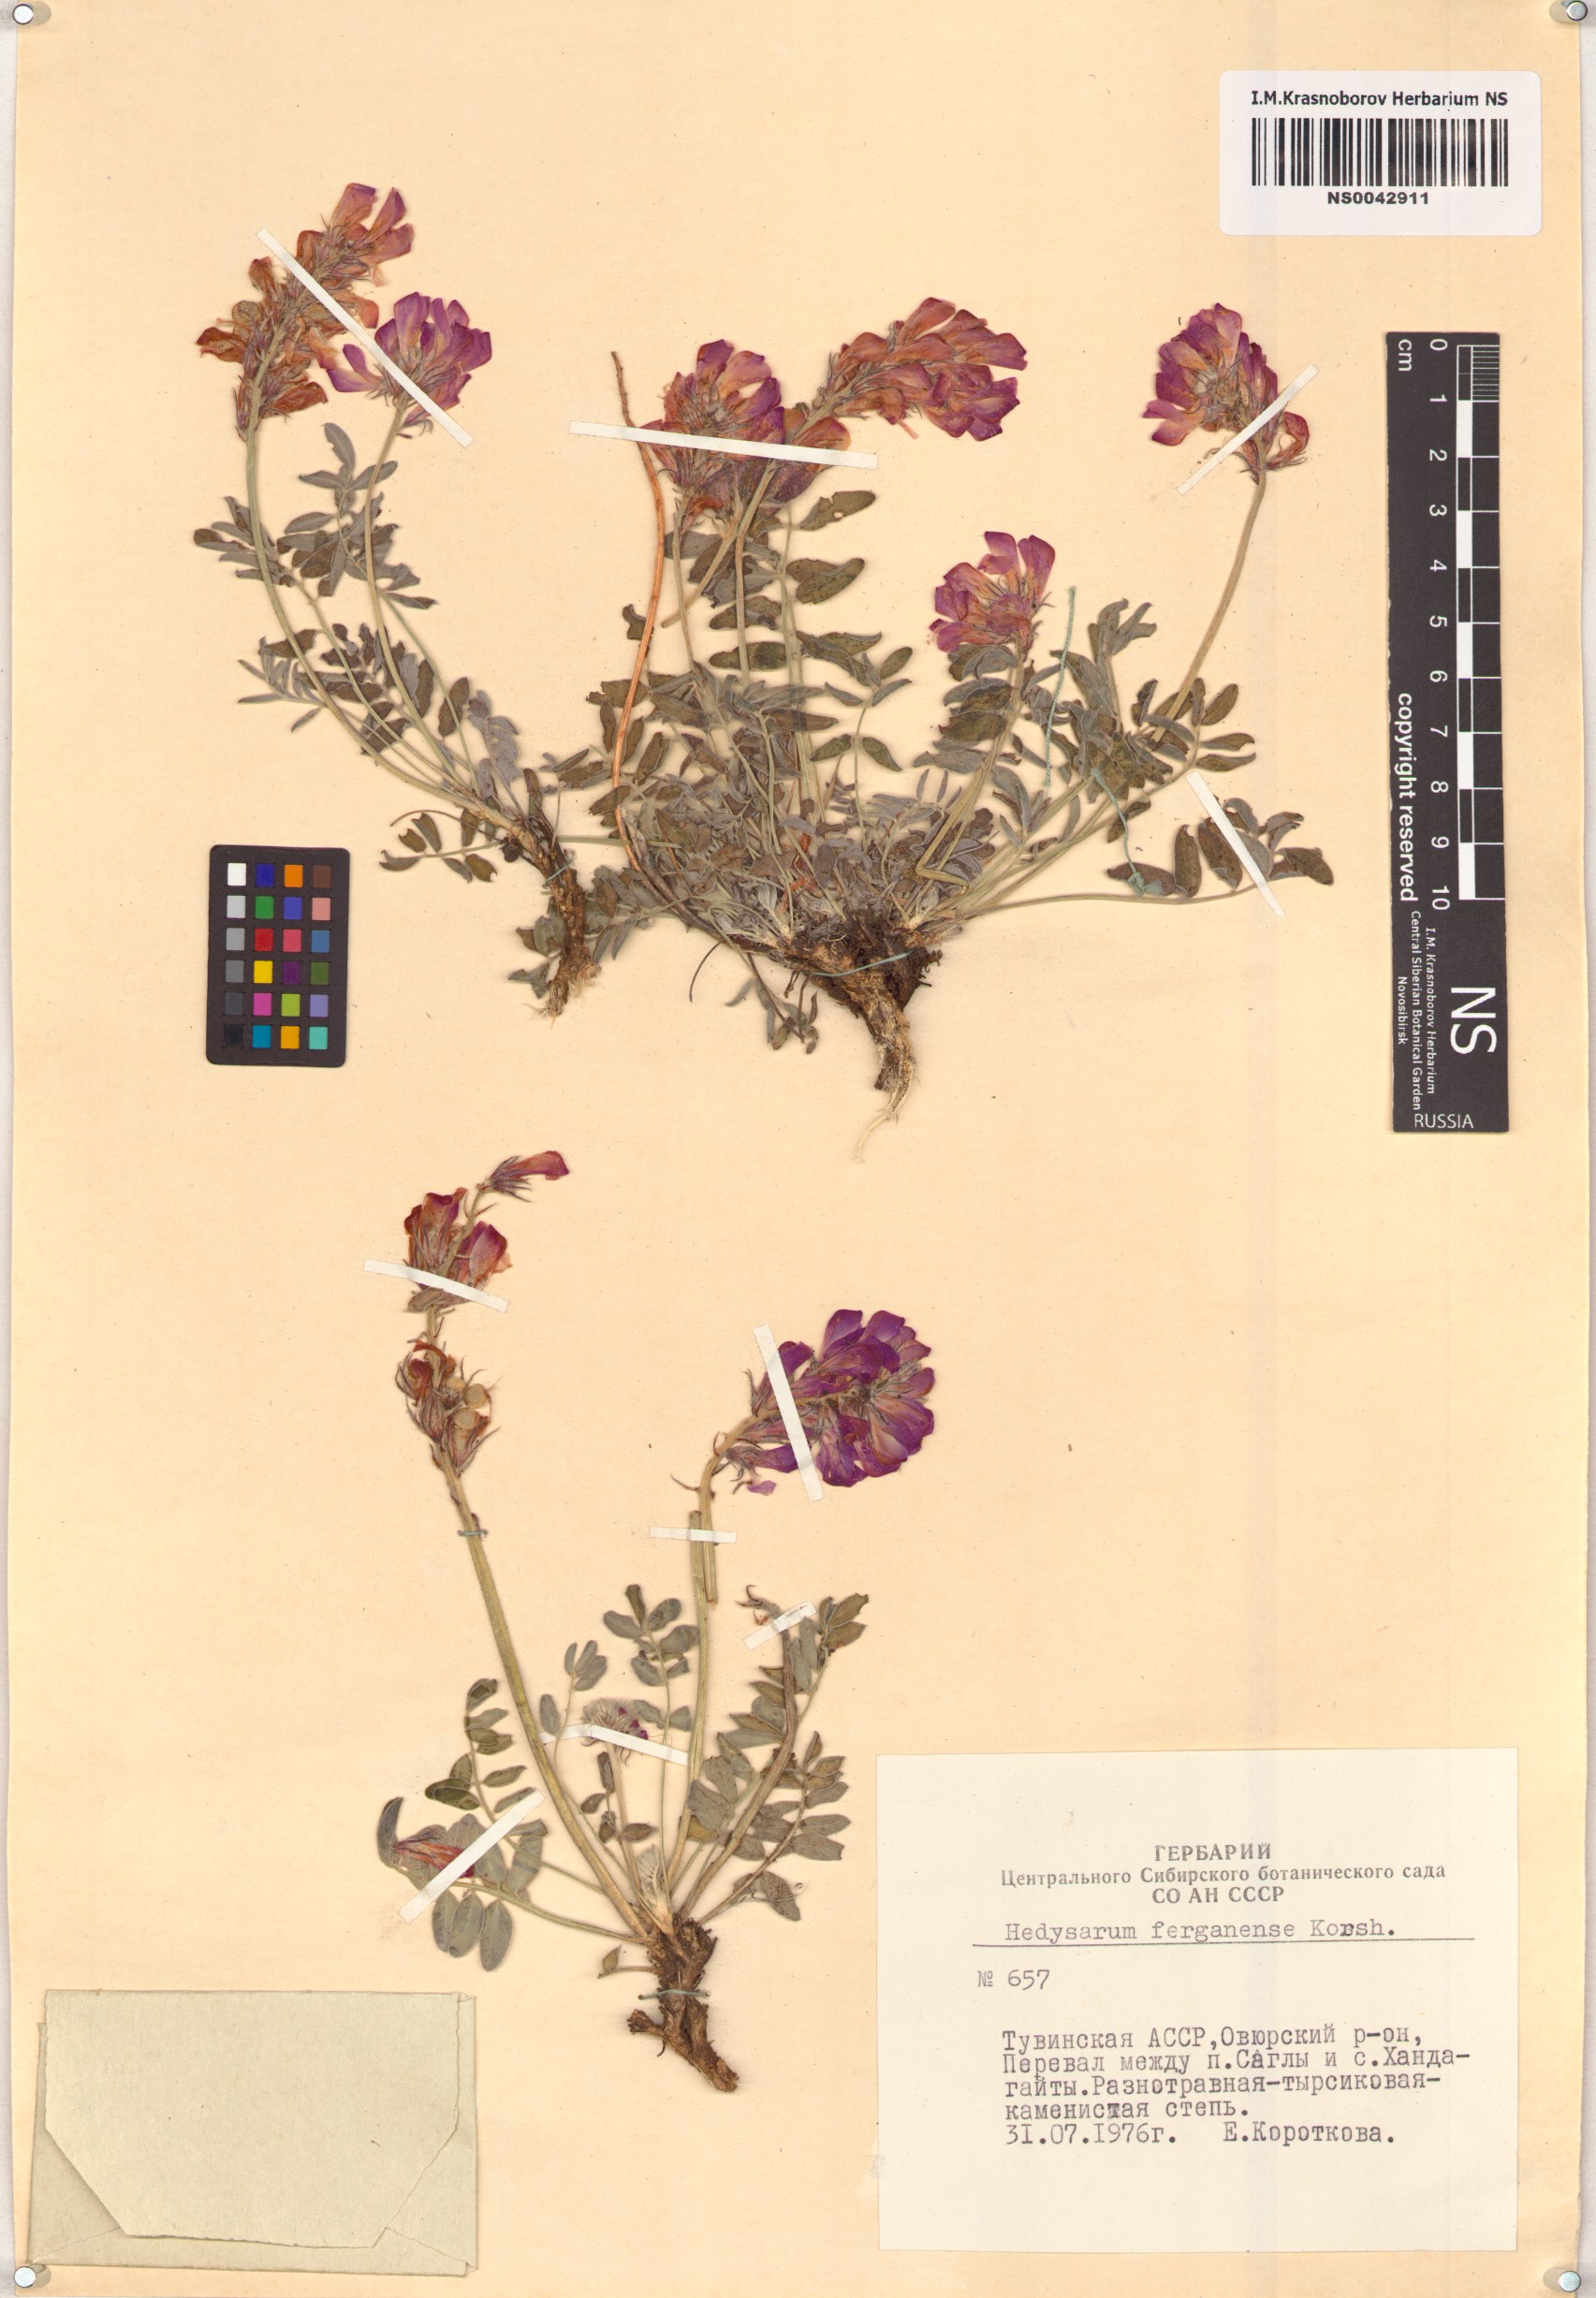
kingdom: Plantae
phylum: Tracheophyta
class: Magnoliopsida
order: Fabales
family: Fabaceae
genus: Hedysarum
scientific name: Hedysarum ferganense
